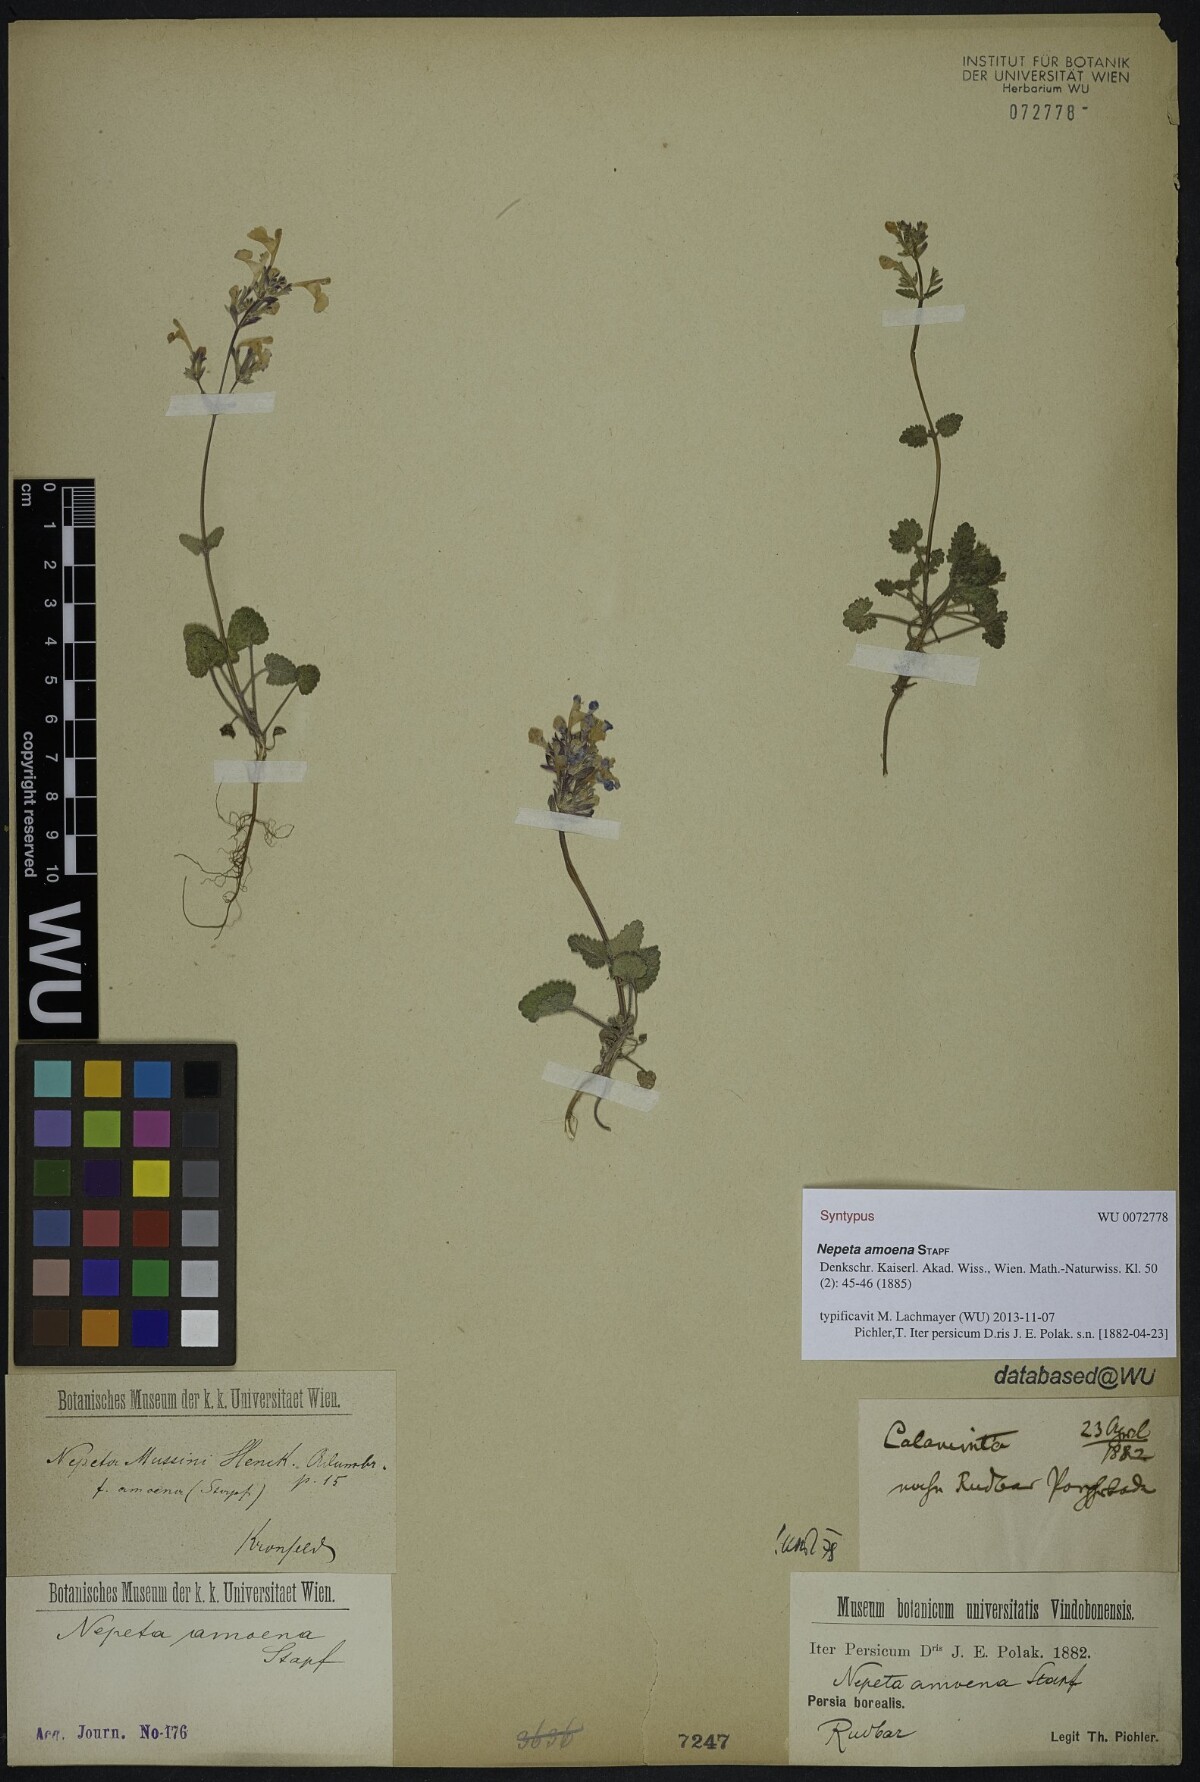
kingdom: Plantae
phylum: Tracheophyta
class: Magnoliopsida
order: Lamiales
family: Lamiaceae
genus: Nepeta
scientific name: Nepeta amoena
